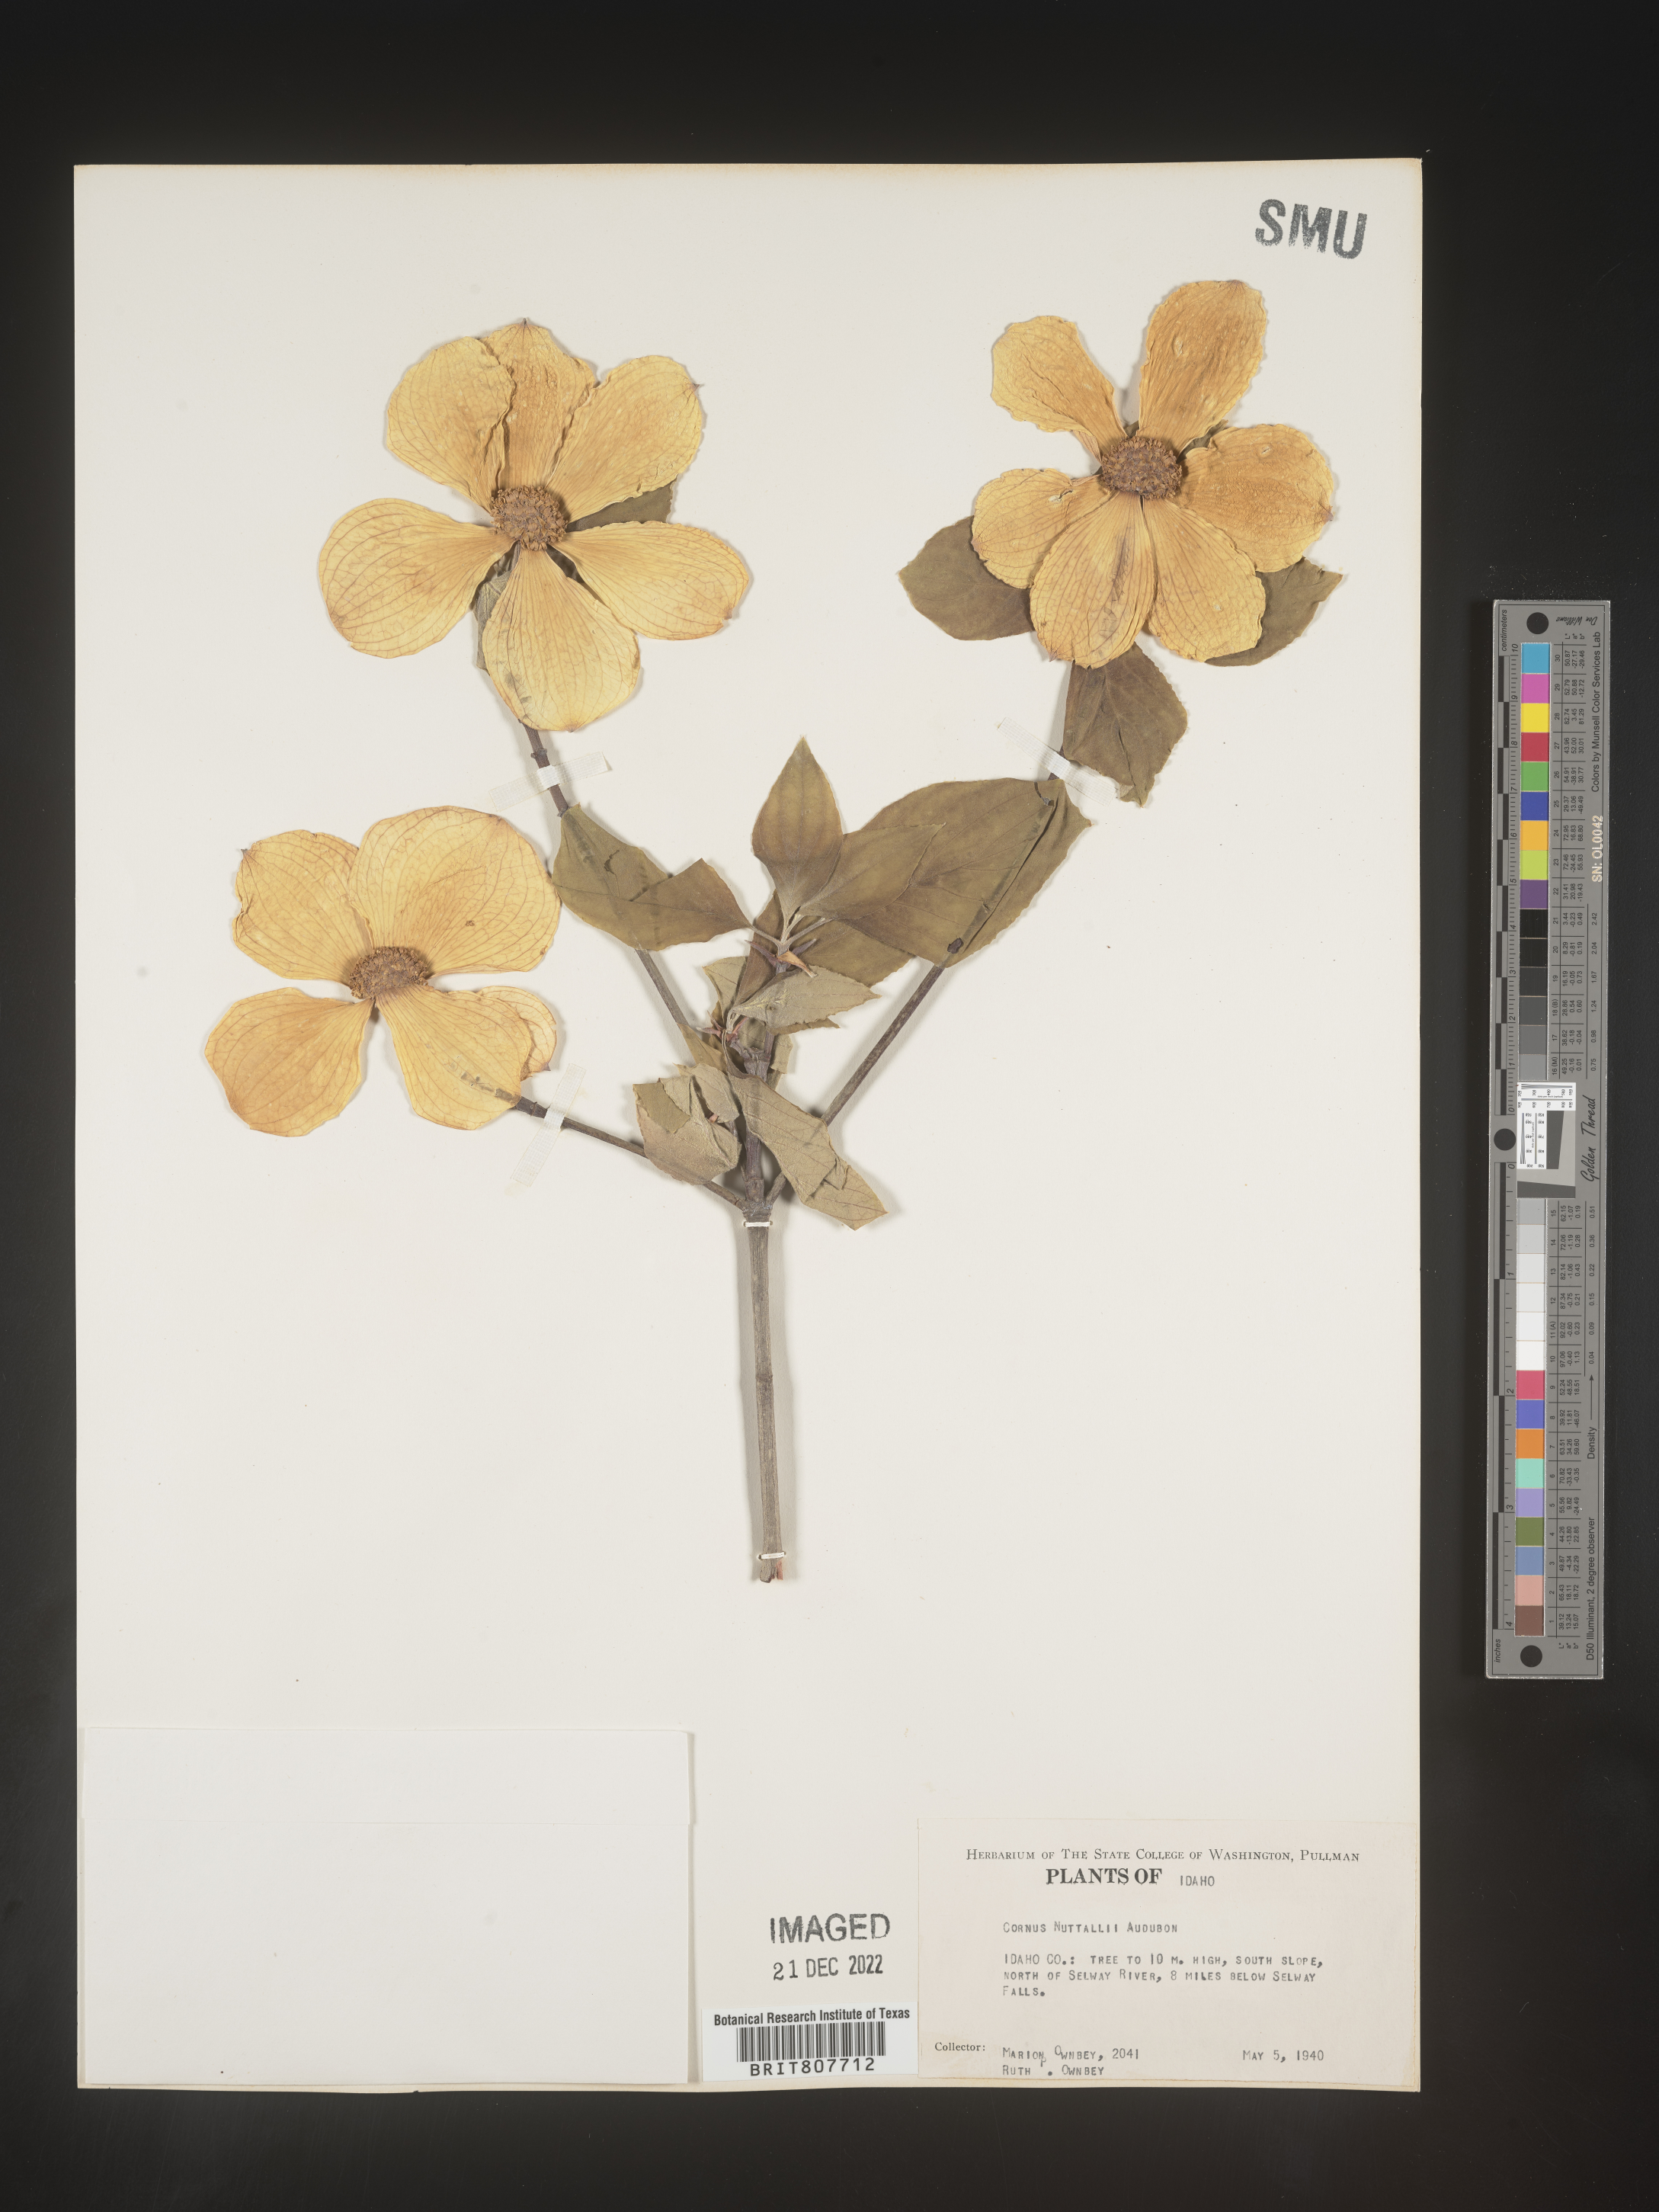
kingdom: Plantae
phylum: Tracheophyta
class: Magnoliopsida
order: Cornales
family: Cornaceae
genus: Cornus
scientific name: Cornus nuttallii
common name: Pacific dogwood
